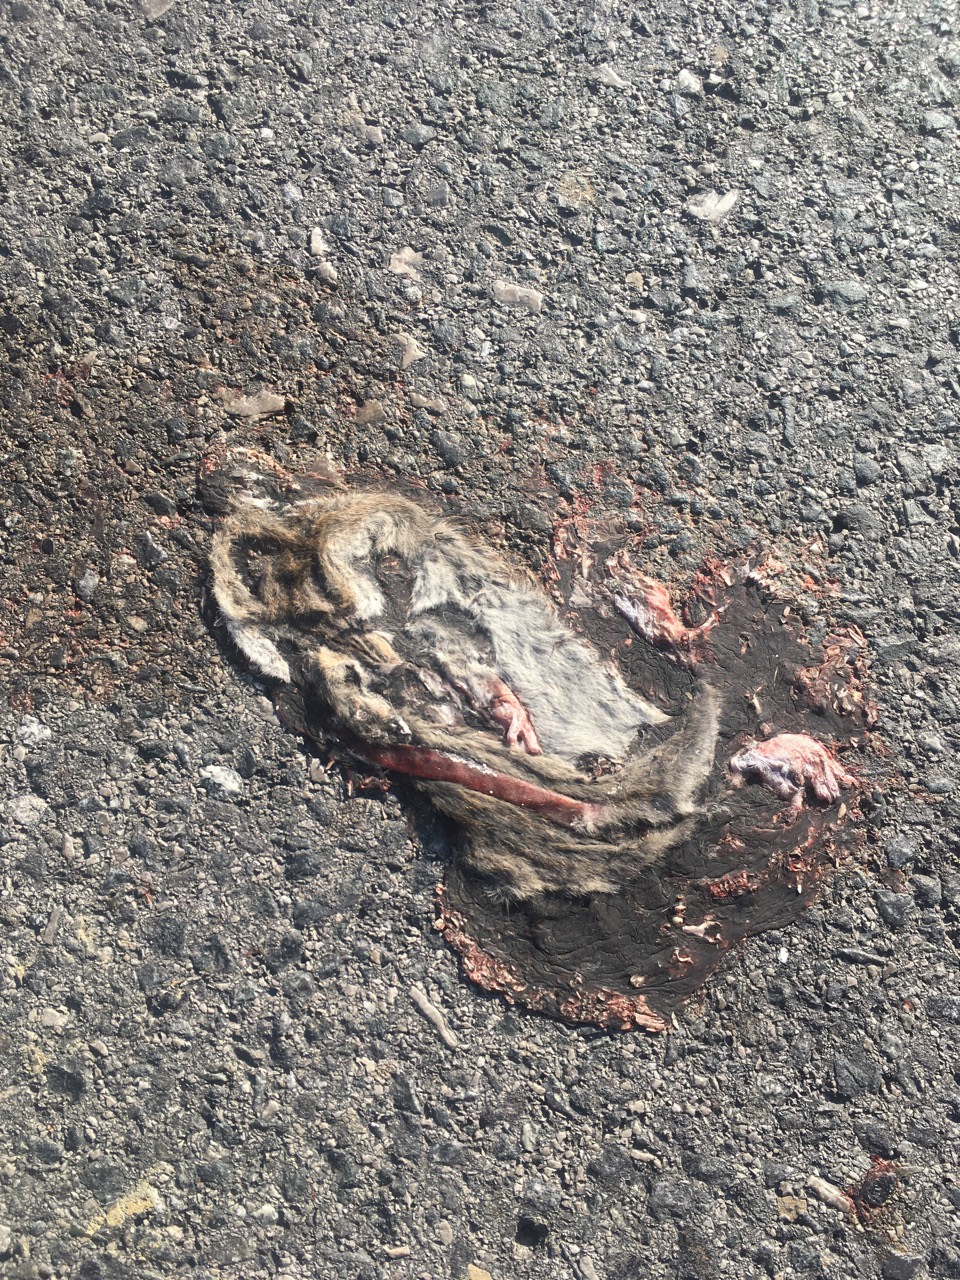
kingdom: Animalia
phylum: Chordata
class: Mammalia
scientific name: Mammalia
